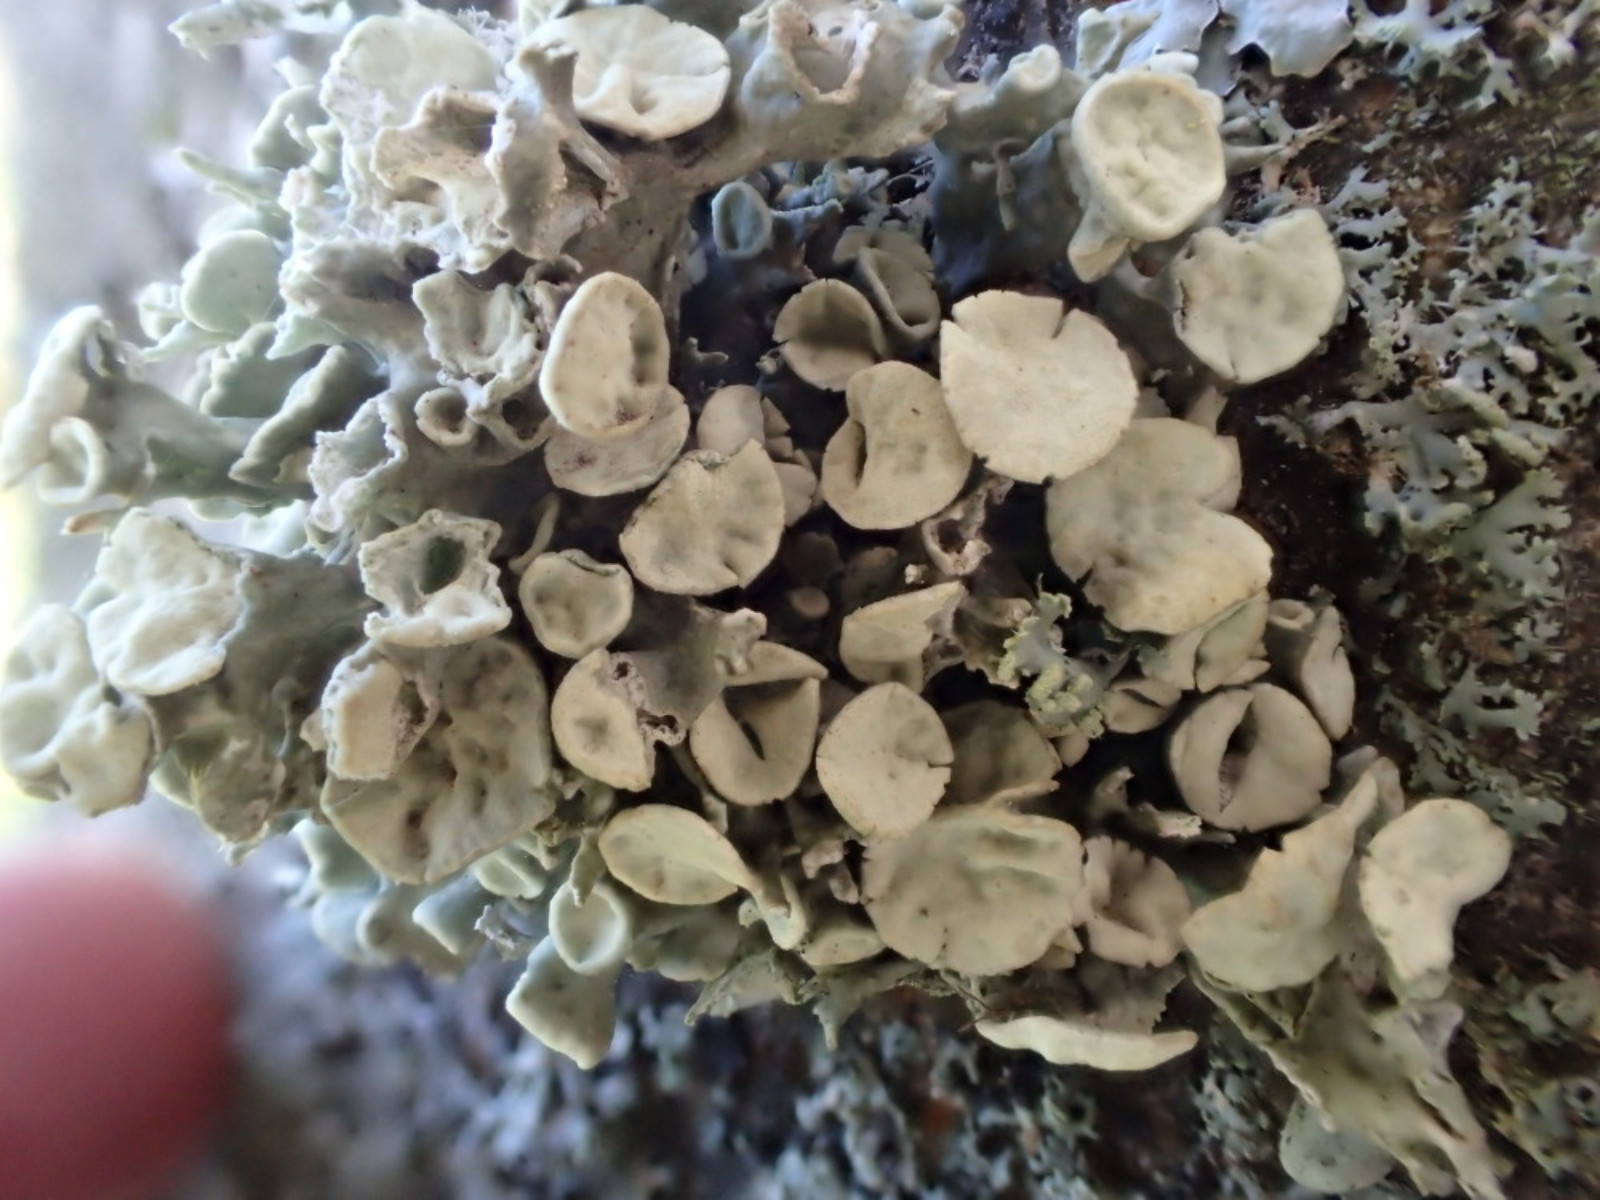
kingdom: Fungi
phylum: Ascomycota
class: Lecanoromycetes
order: Lecanorales
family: Ramalinaceae
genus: Ramalina
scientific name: Ramalina fastigiata
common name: tue-grenlav
